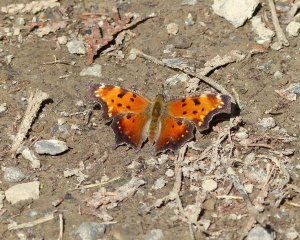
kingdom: Animalia
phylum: Arthropoda
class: Insecta
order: Lepidoptera
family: Nymphalidae
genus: Polygonia
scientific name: Polygonia progne
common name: Gray Comma
